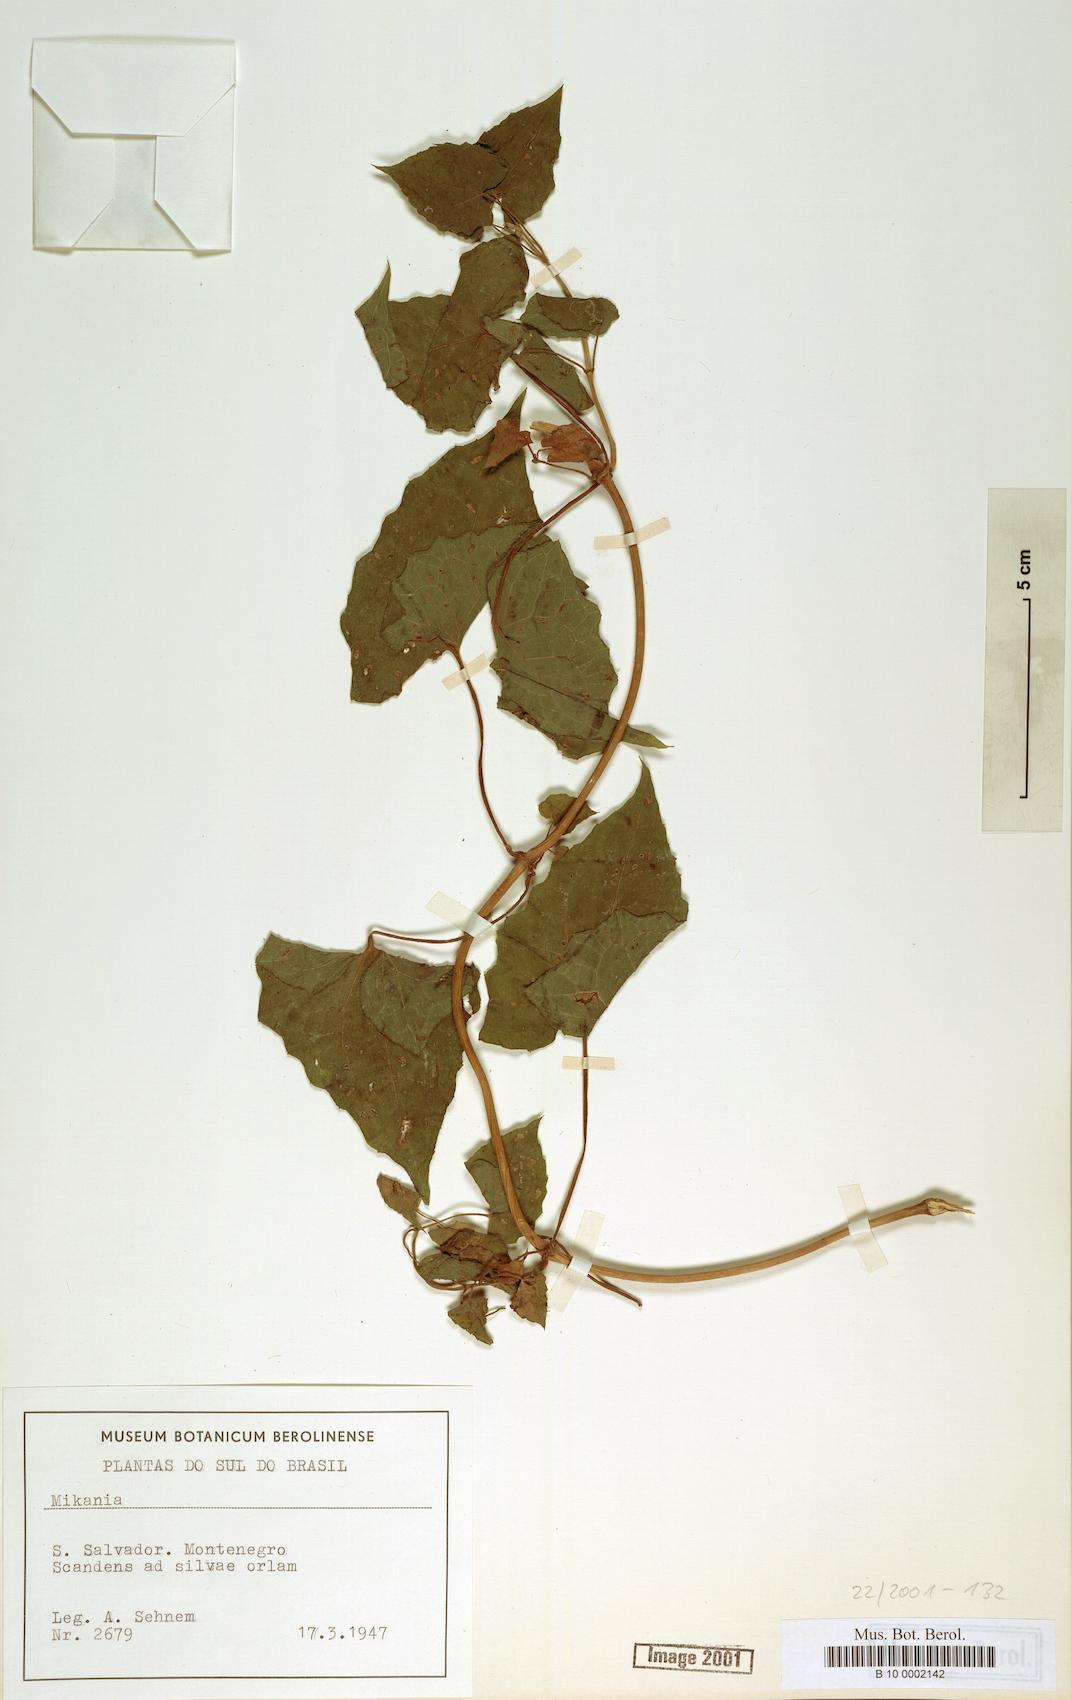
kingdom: Plantae
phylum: Tracheophyta
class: Magnoliopsida
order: Asterales
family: Asteraceae
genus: Mikania
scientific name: Mikania
